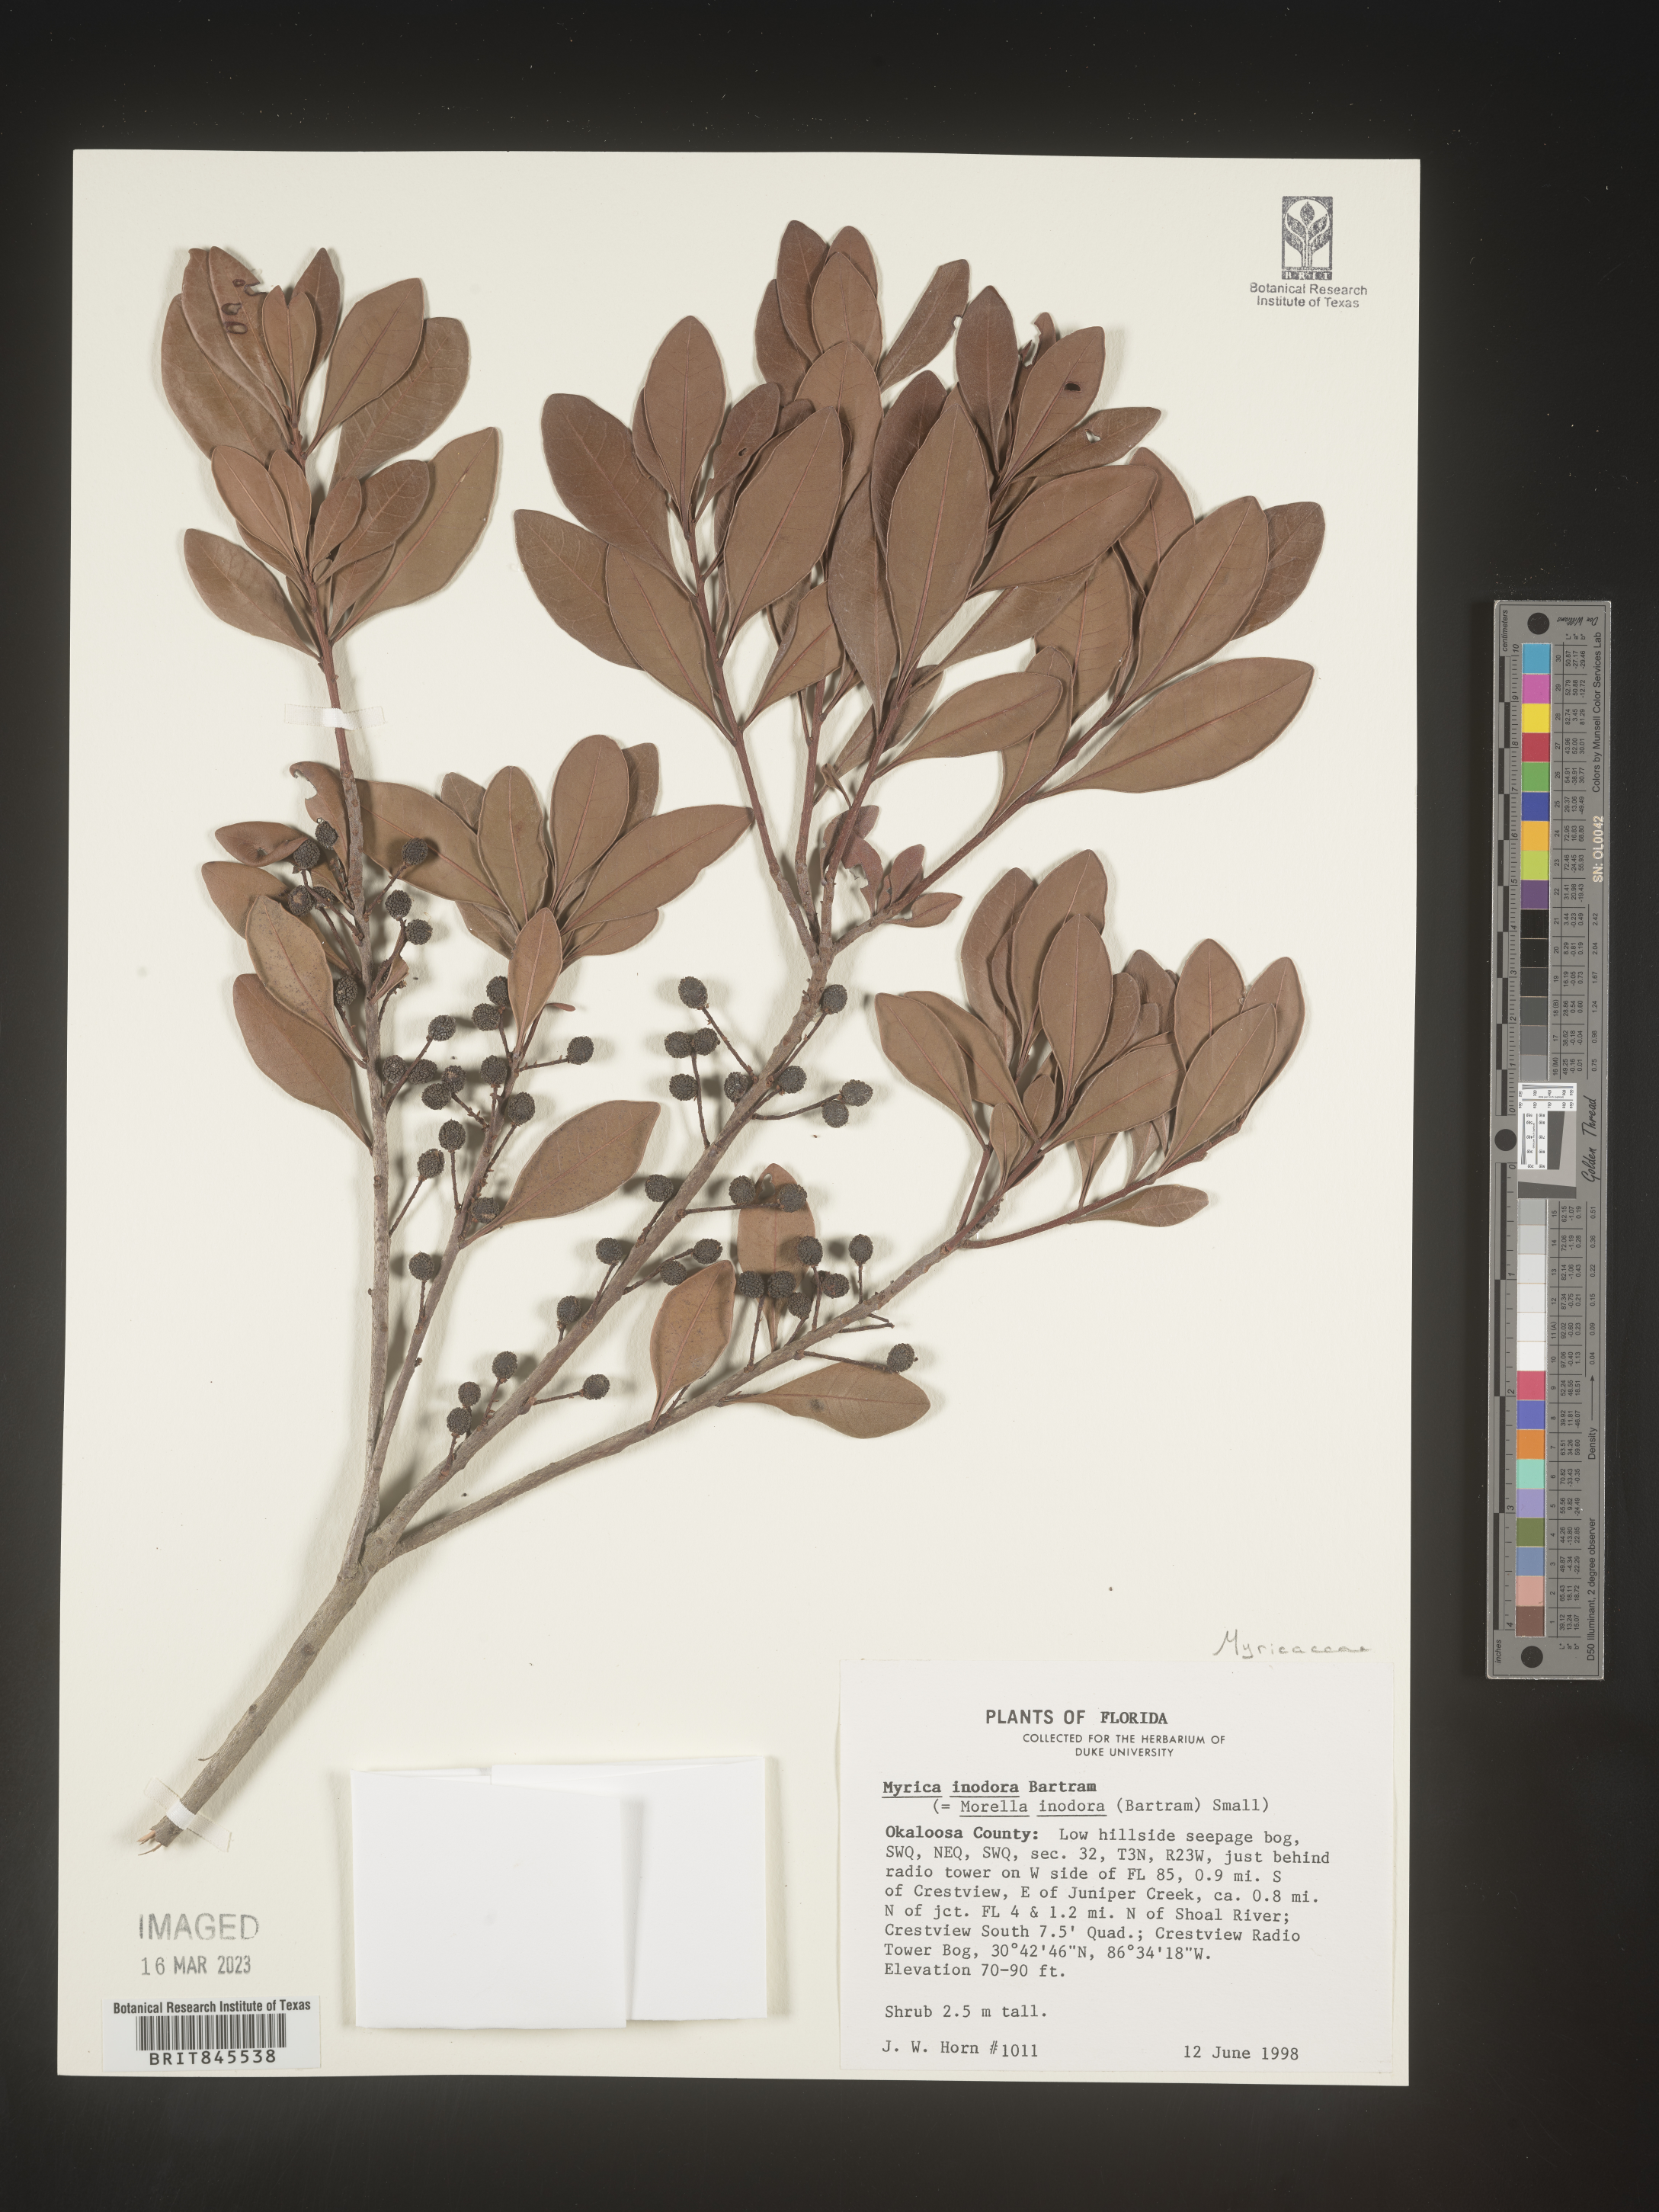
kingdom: Plantae
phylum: Tracheophyta
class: Magnoliopsida
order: Fagales
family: Myricaceae
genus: Myrica
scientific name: Myrica
